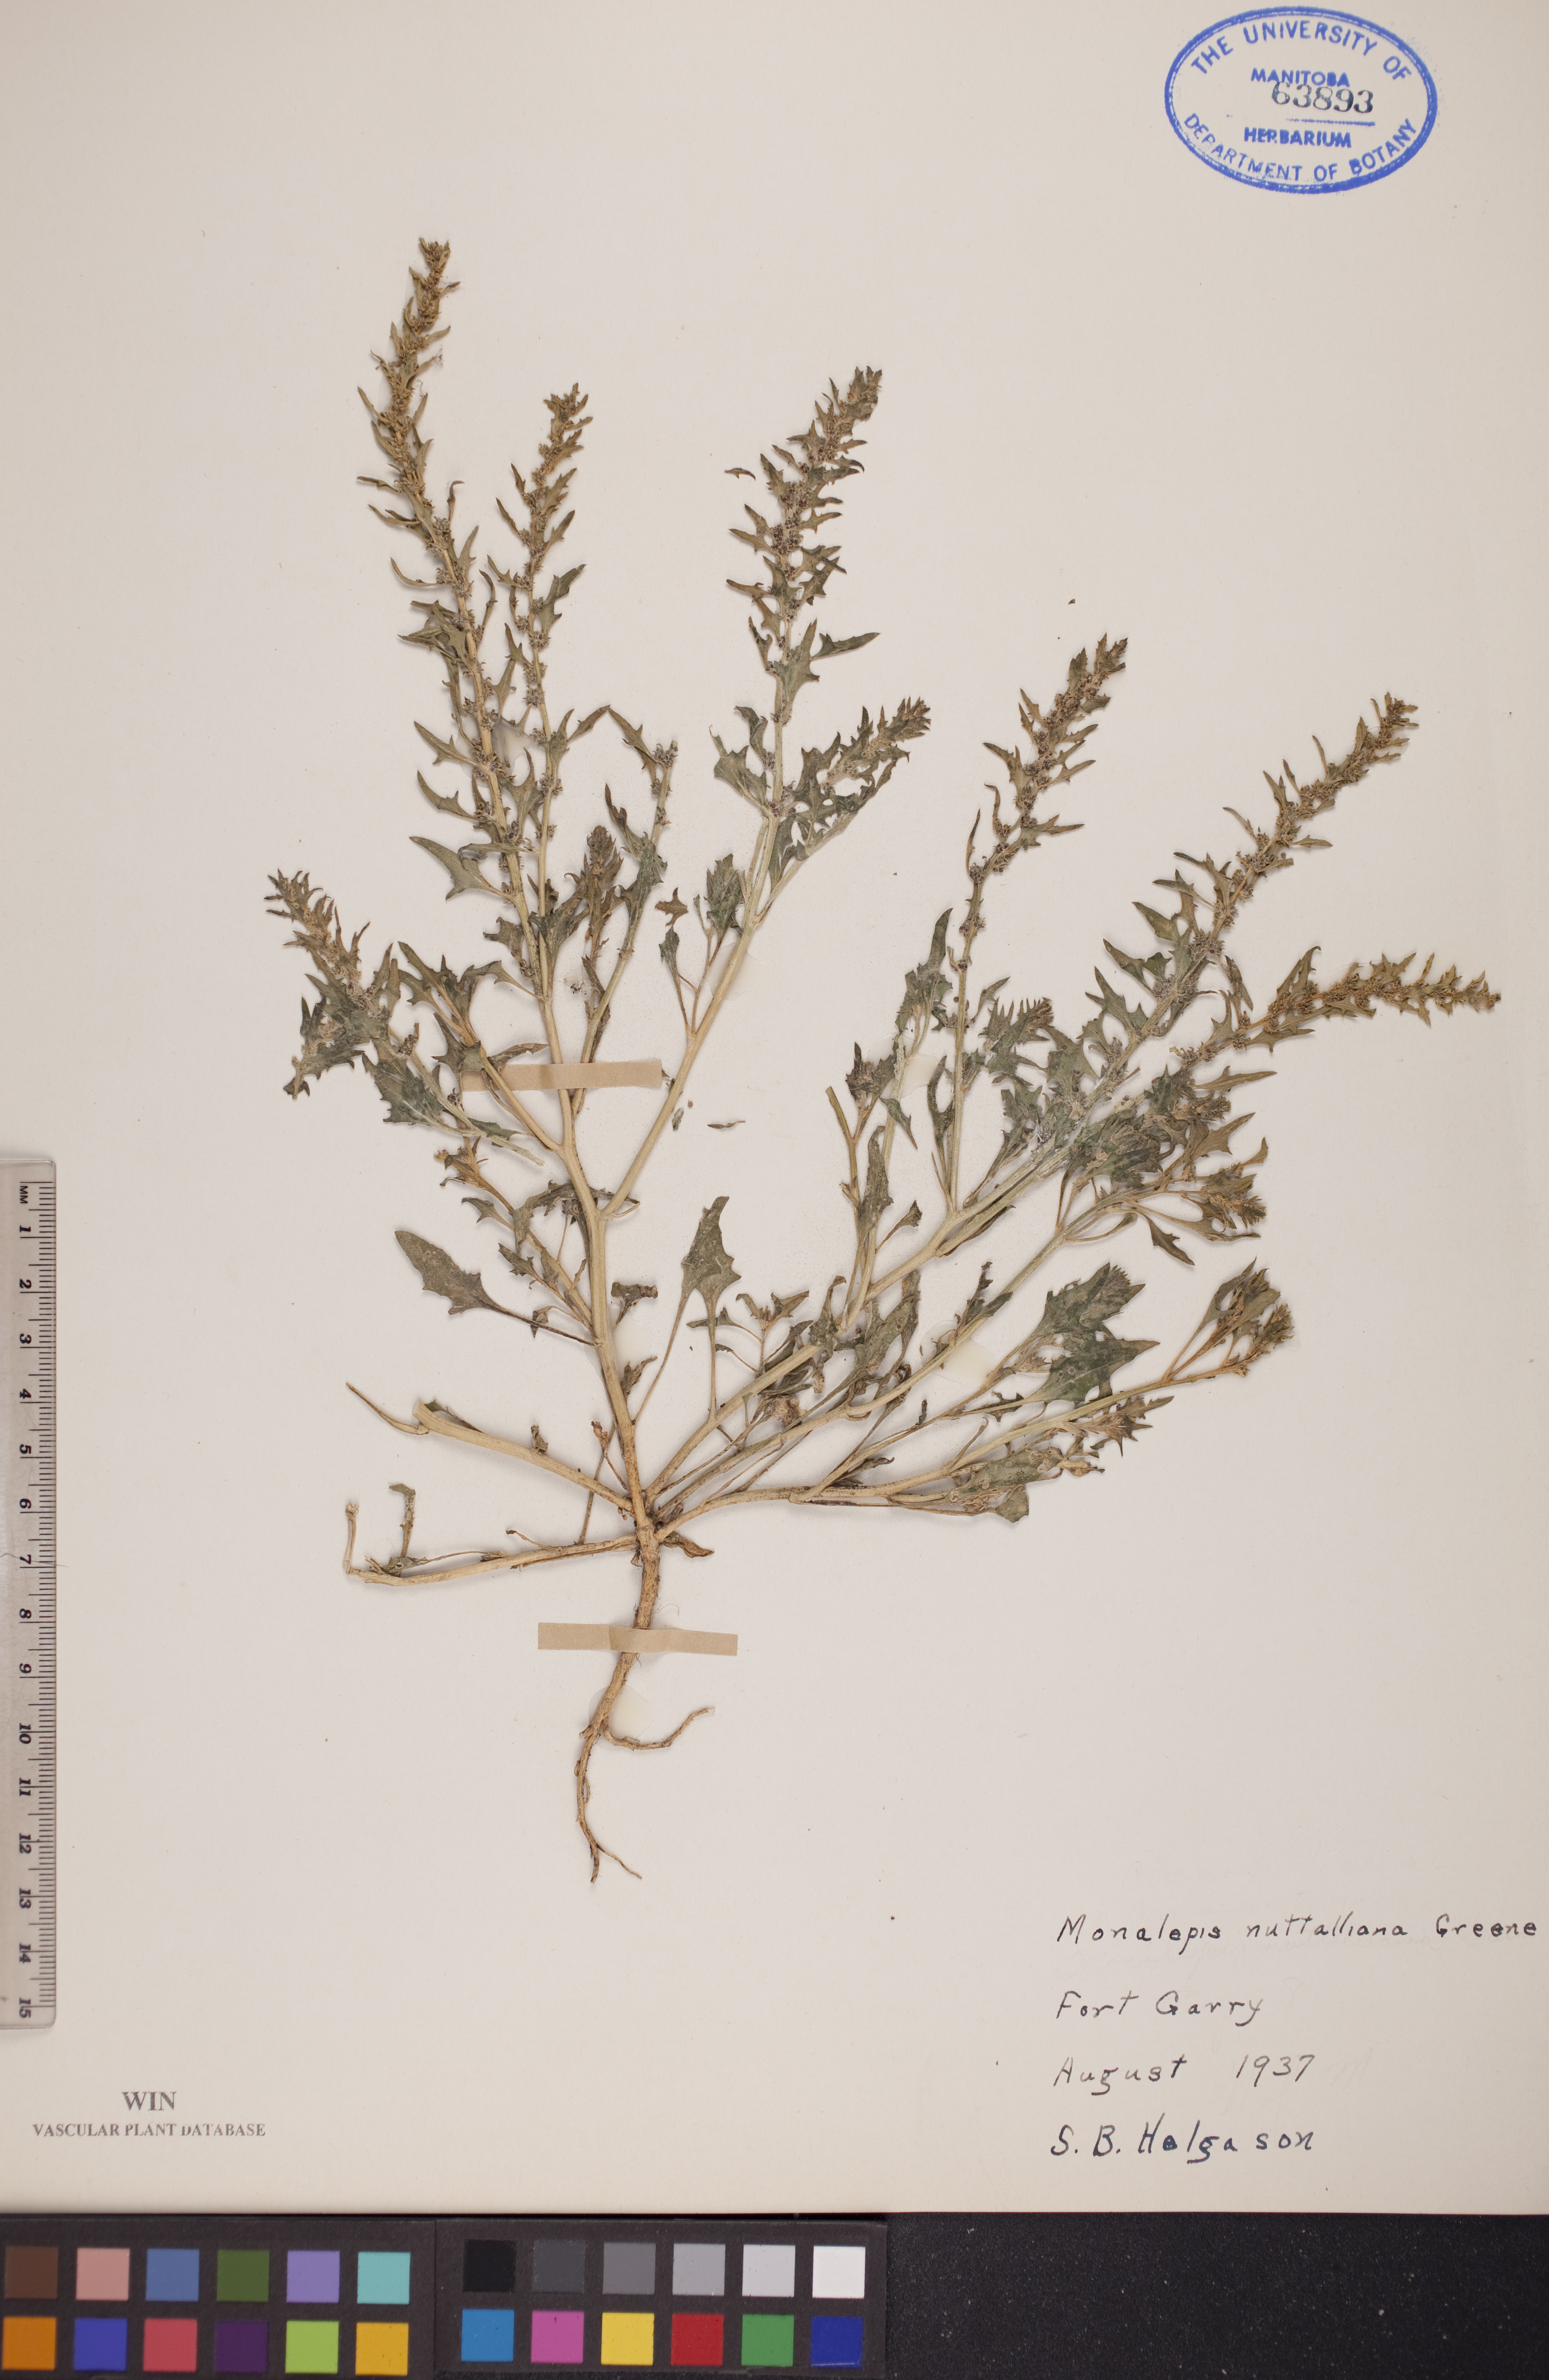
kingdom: Plantae
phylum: Tracheophyta
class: Magnoliopsida
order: Caryophyllales
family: Amaranthaceae
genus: Blitum
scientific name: Blitum nuttallianum
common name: Poverty-weed
